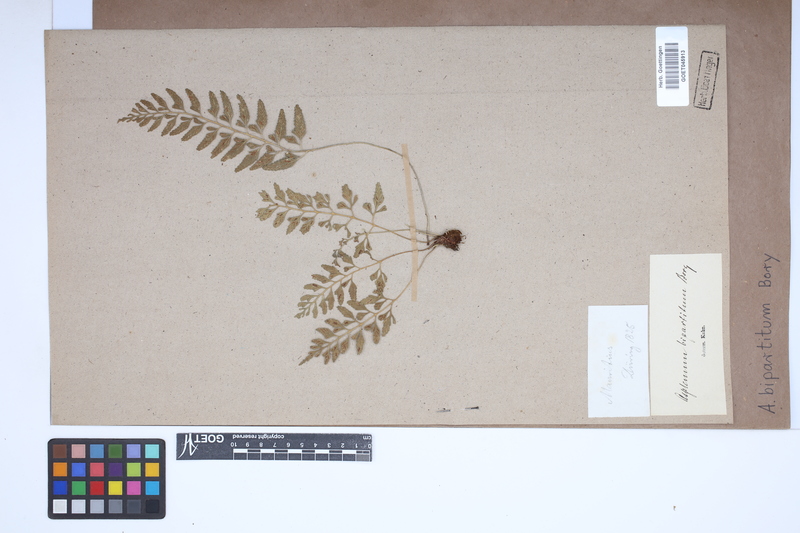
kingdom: Plantae
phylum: Tracheophyta
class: Polypodiopsida
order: Polypodiales
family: Aspleniaceae
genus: Asplenium
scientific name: Asplenium bipartitum
